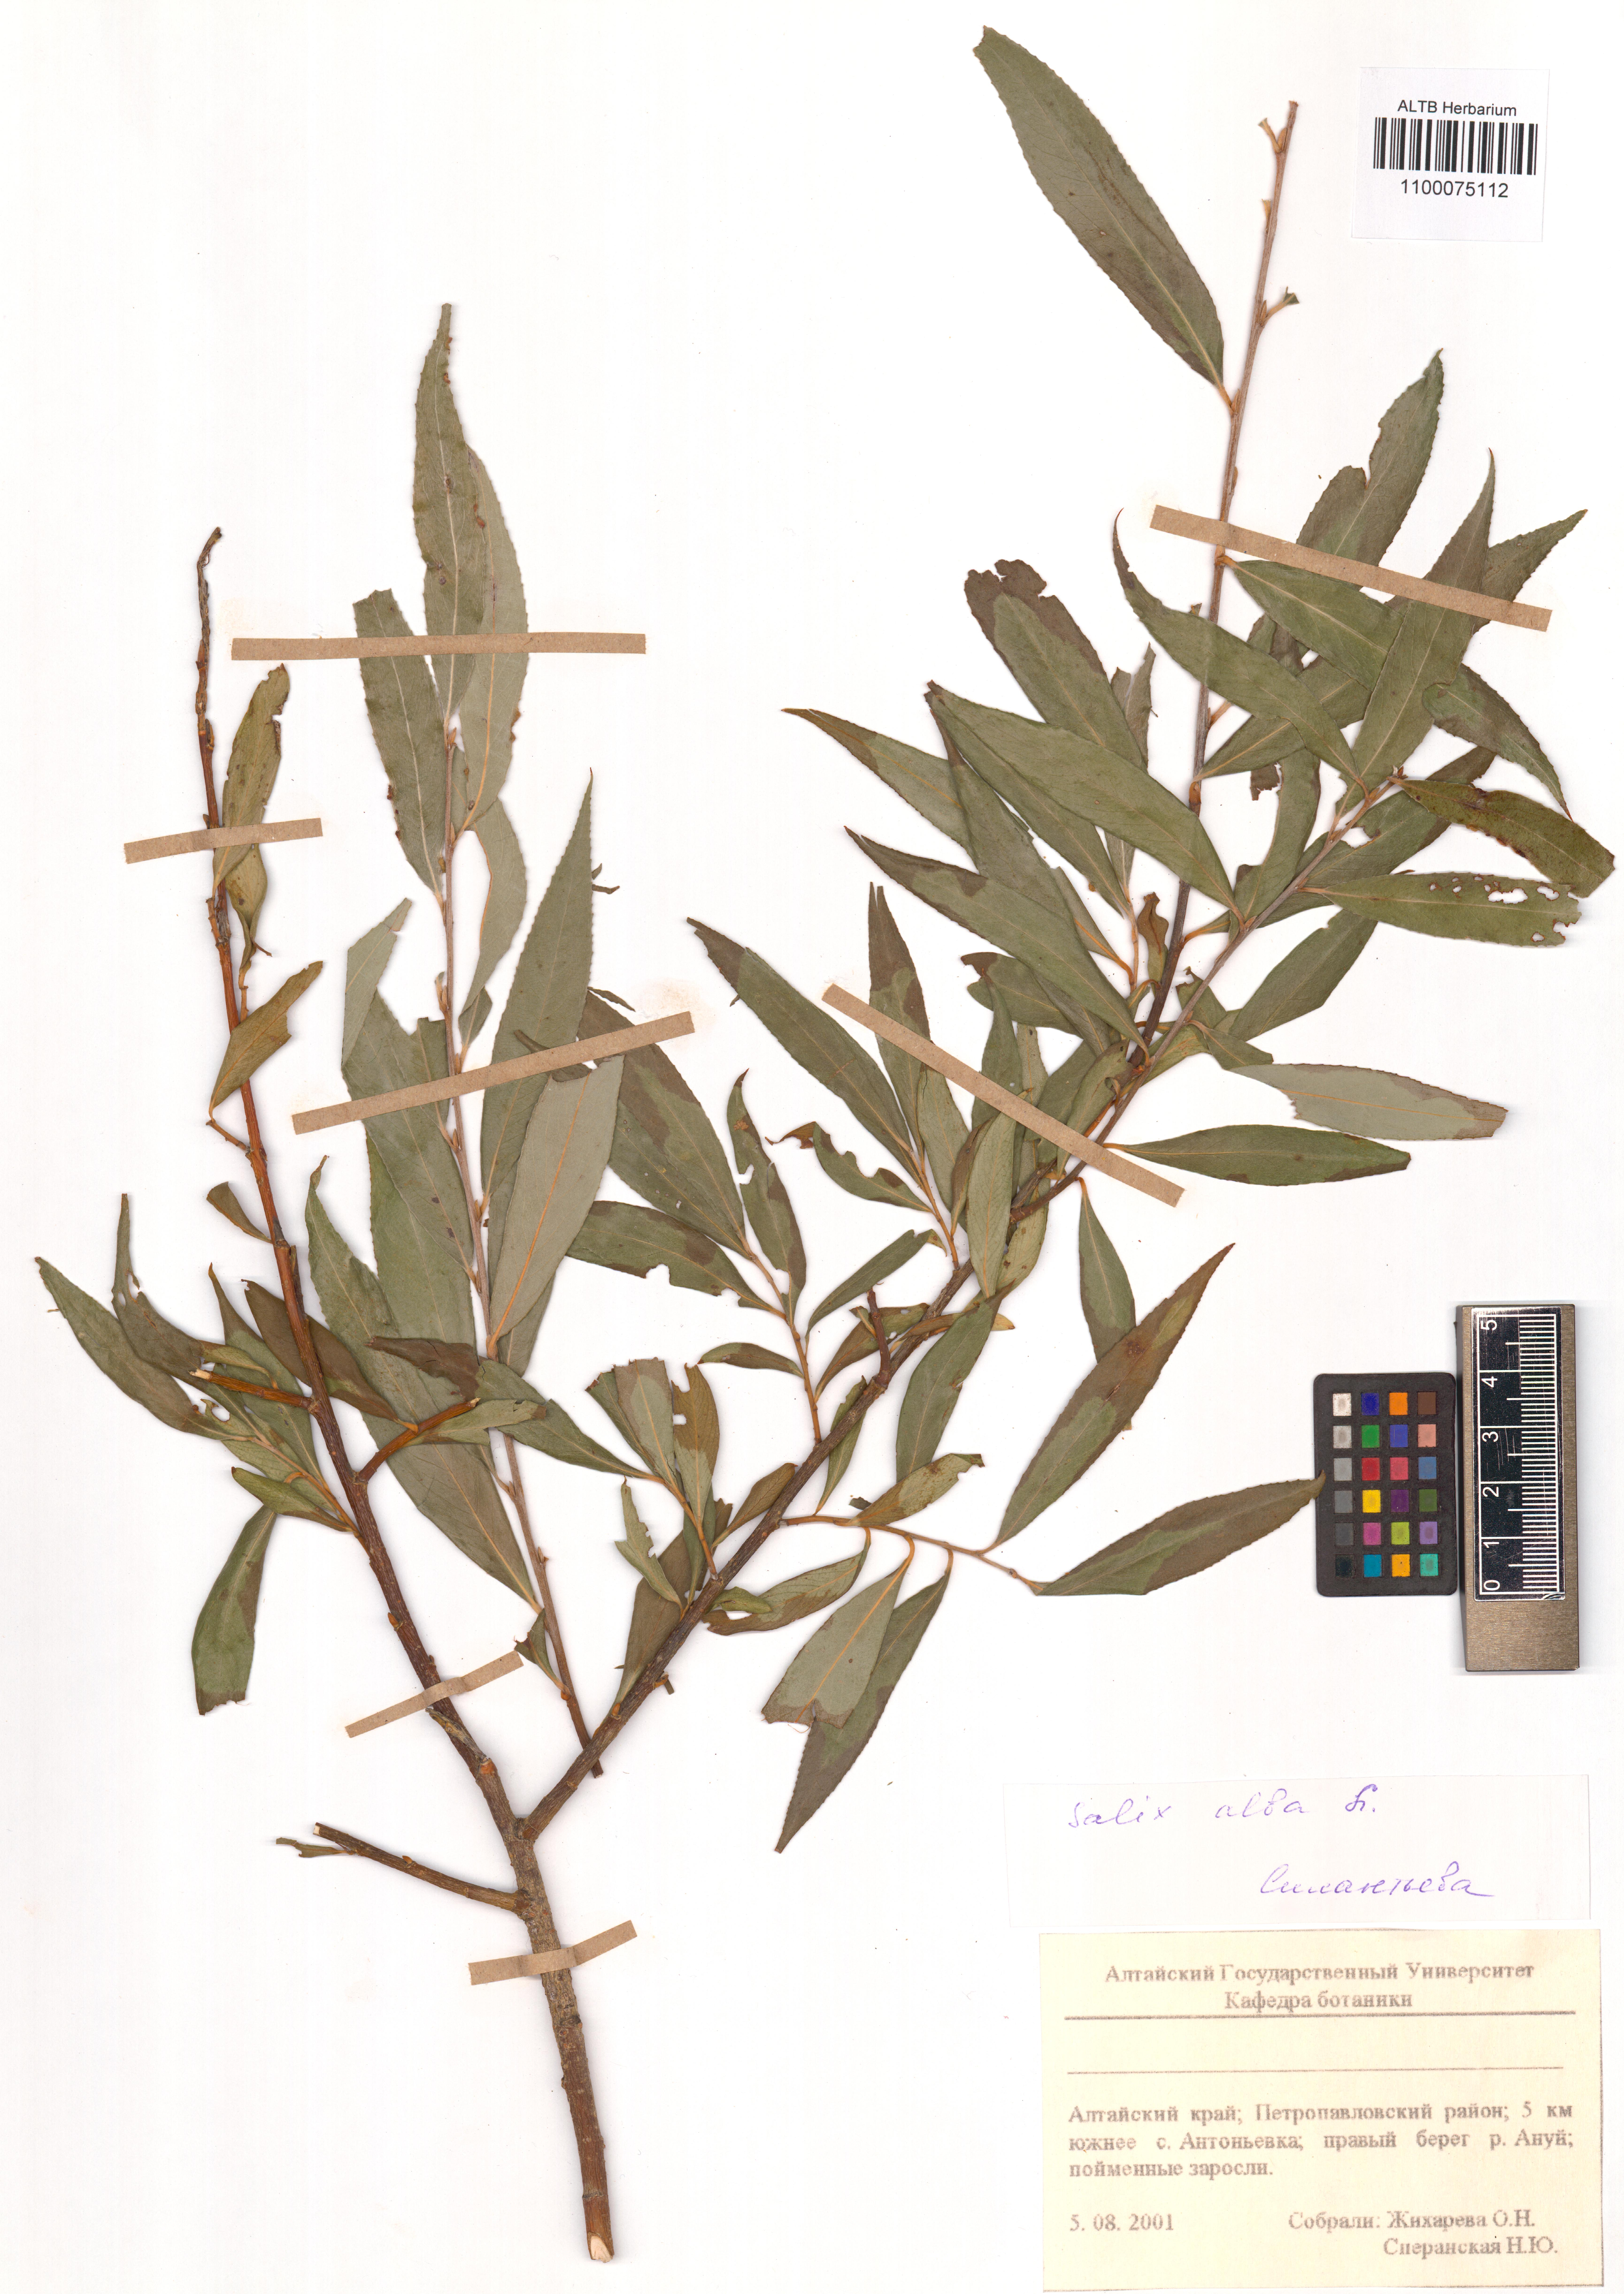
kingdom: Plantae
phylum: Tracheophyta
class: Magnoliopsida
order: Malpighiales
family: Salicaceae
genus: Salix
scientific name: Salix alba
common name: White willow
